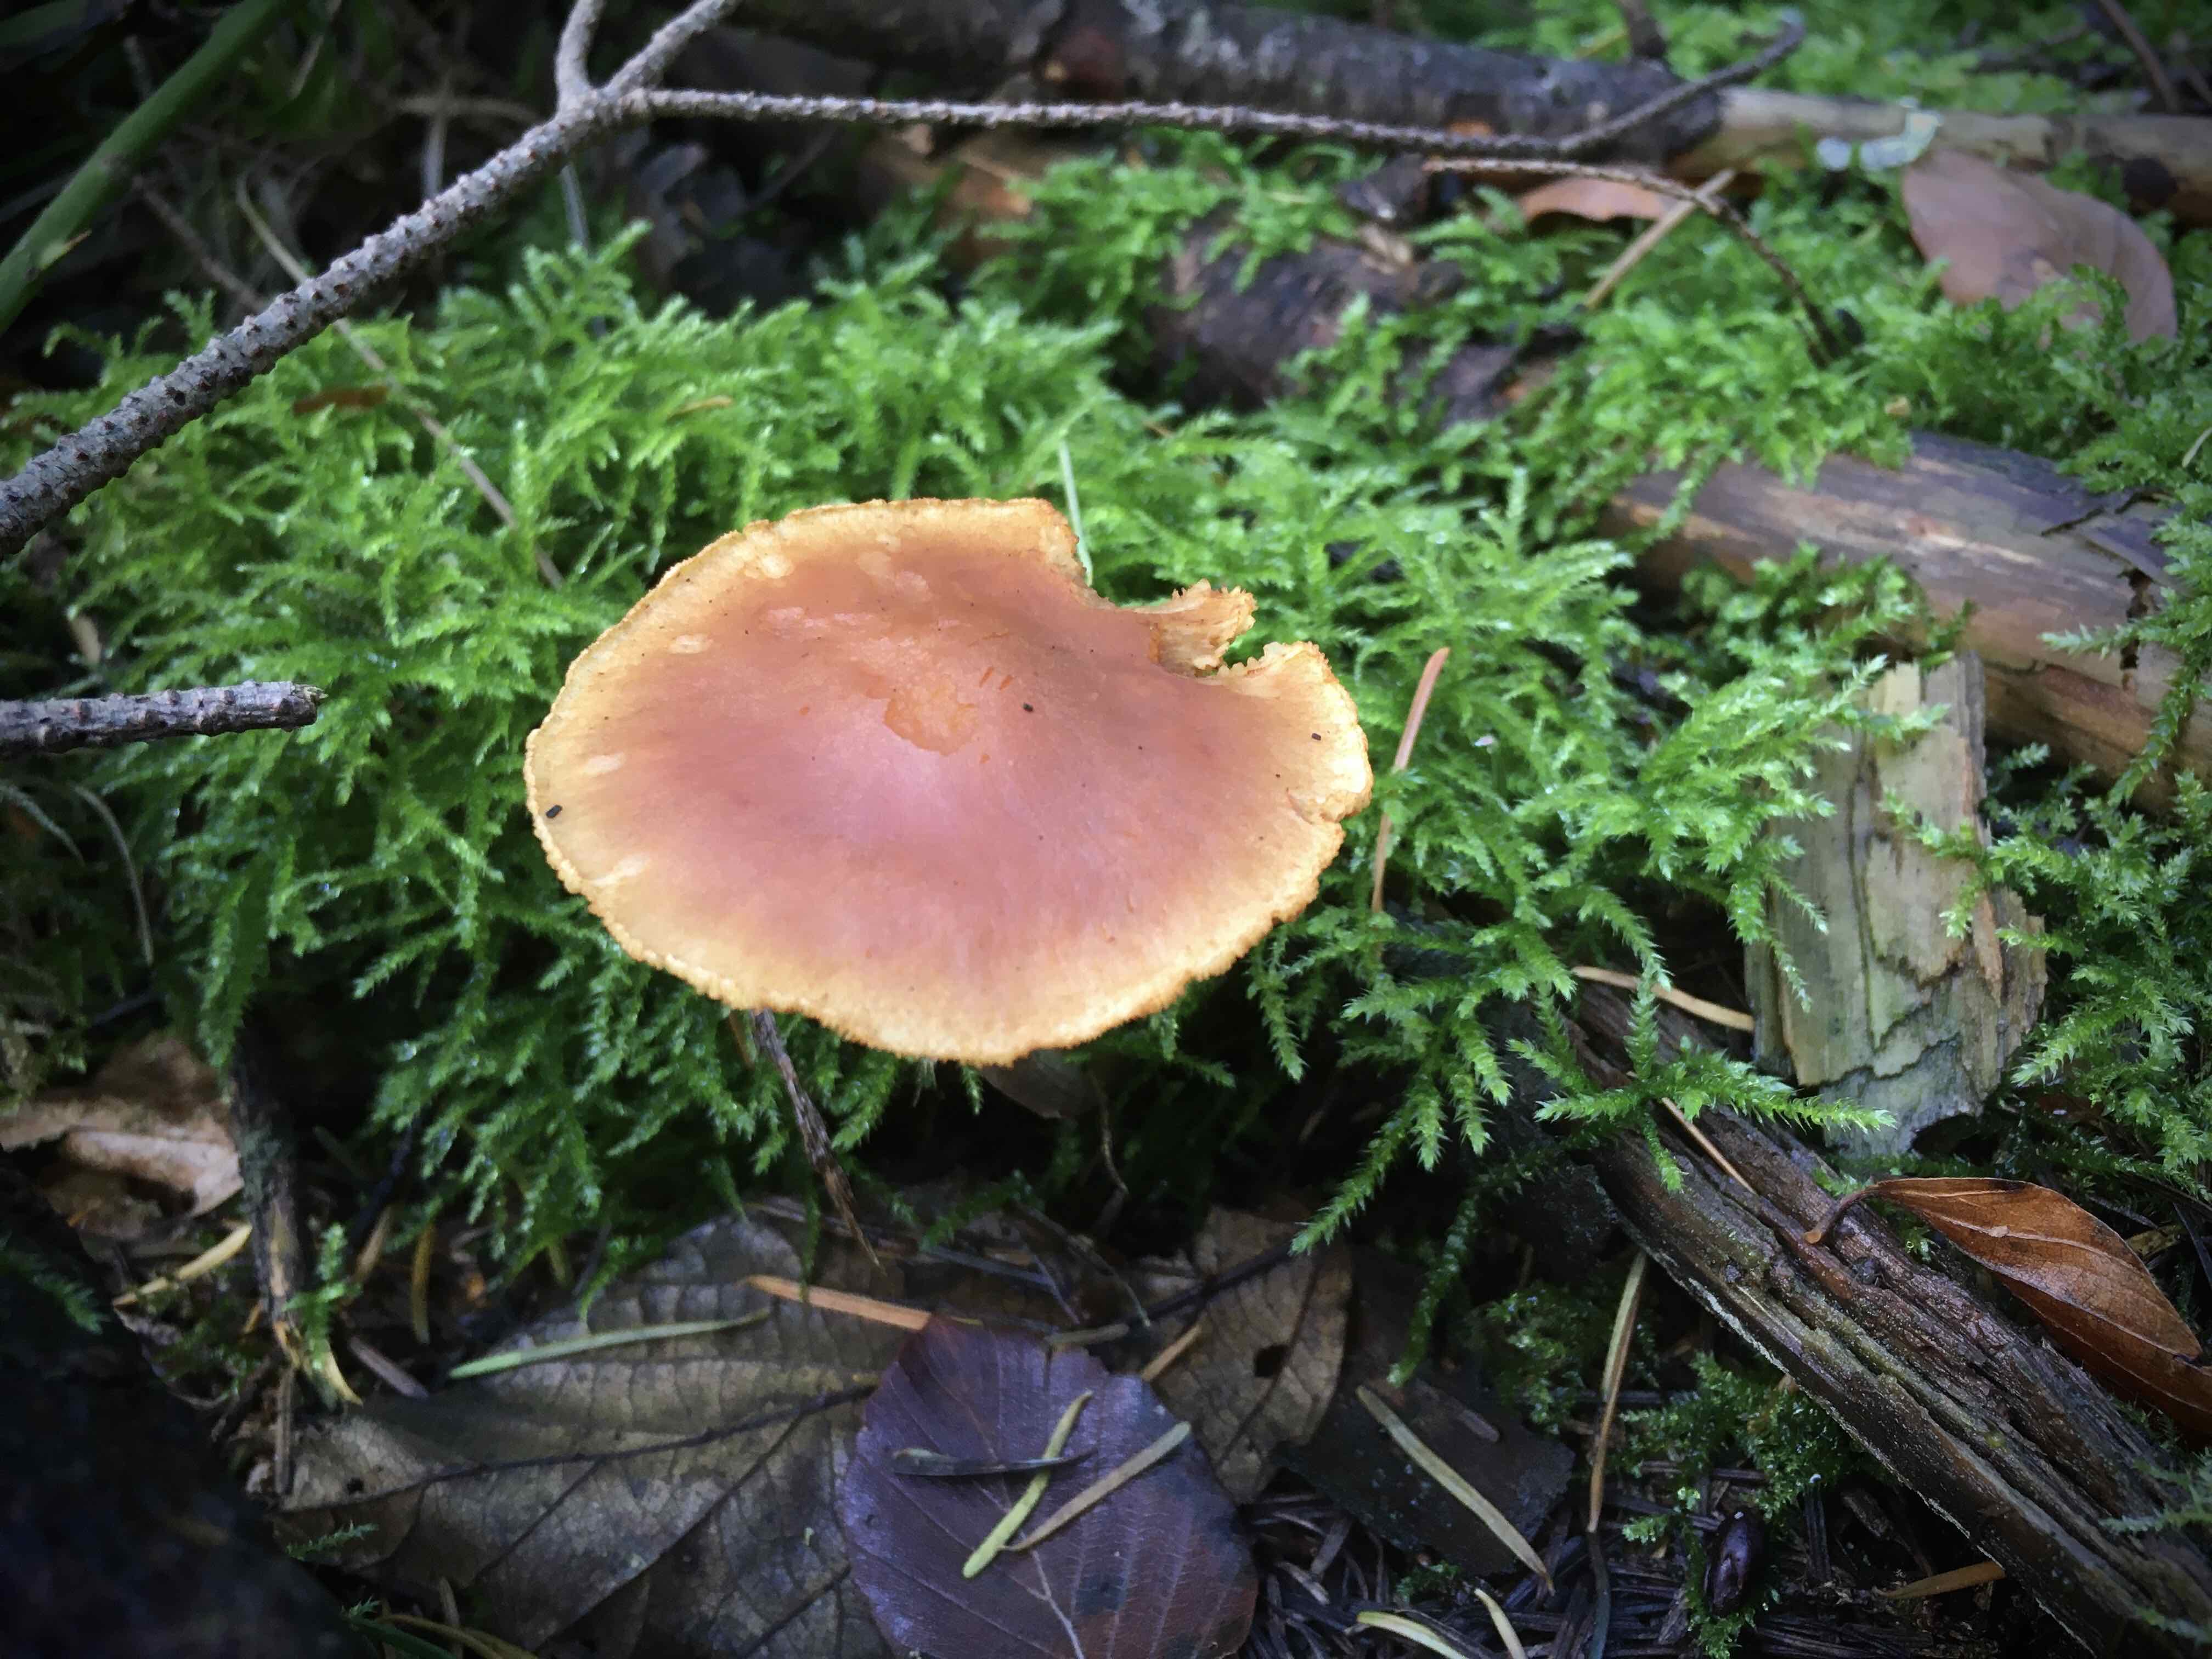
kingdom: Fungi
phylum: Basidiomycota
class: Agaricomycetes
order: Agaricales
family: Hymenogastraceae
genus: Gymnopilus
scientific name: Gymnopilus penetrans
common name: plettet flammehat
